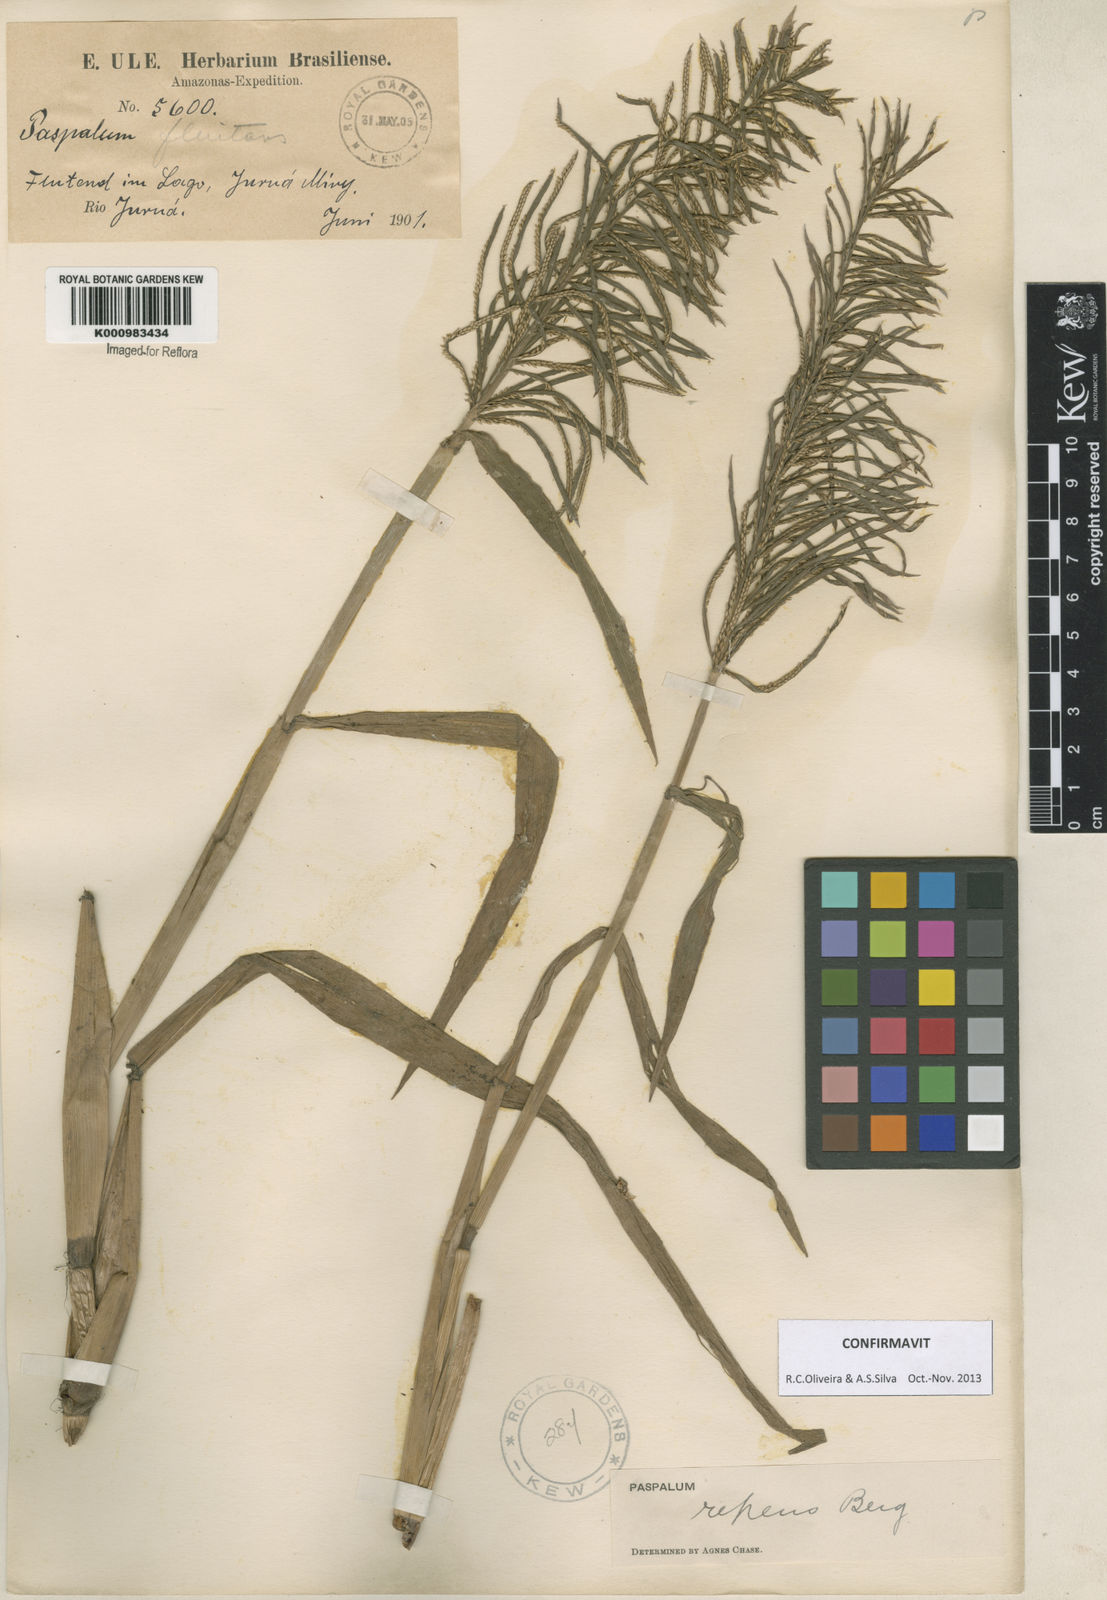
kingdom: Plantae
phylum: Tracheophyta
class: Liliopsida
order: Poales
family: Poaceae
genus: Paspalum
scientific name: Paspalum repens
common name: Water paspalum
